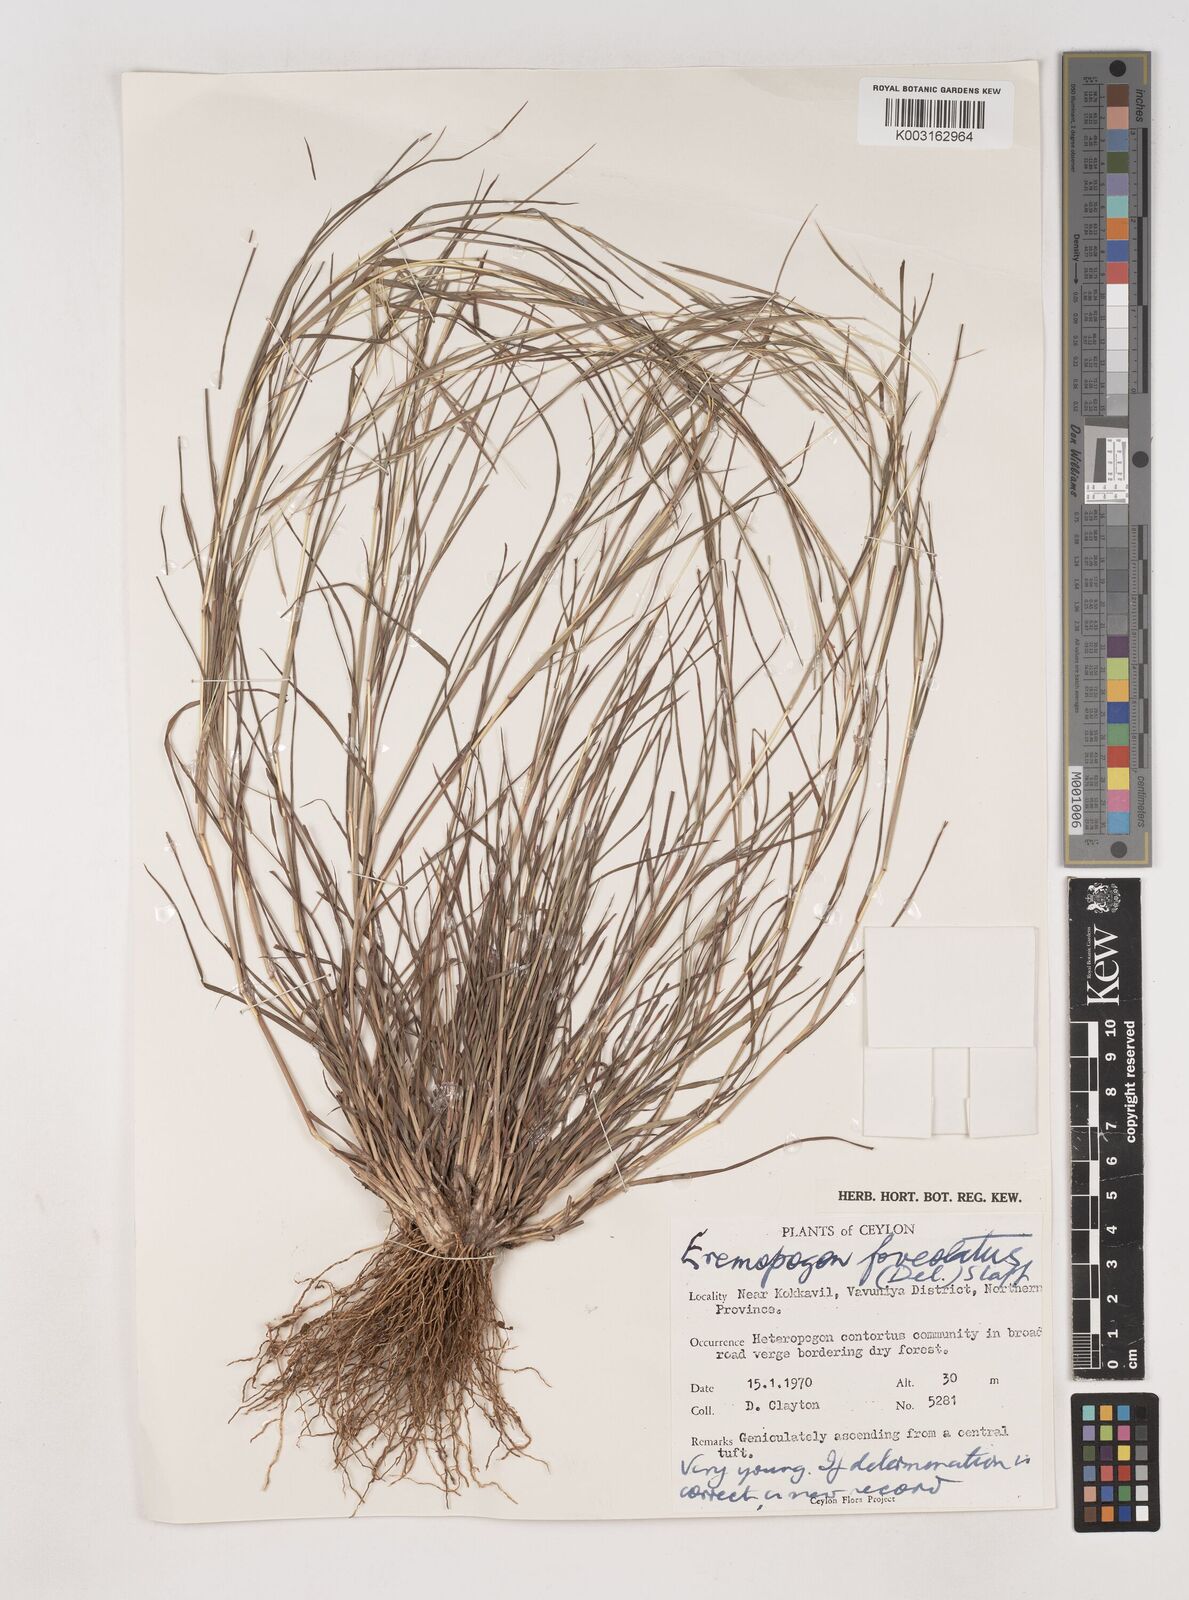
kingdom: Plantae
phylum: Tracheophyta
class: Liliopsida
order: Poales
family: Poaceae
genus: Dichanthium
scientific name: Dichanthium
